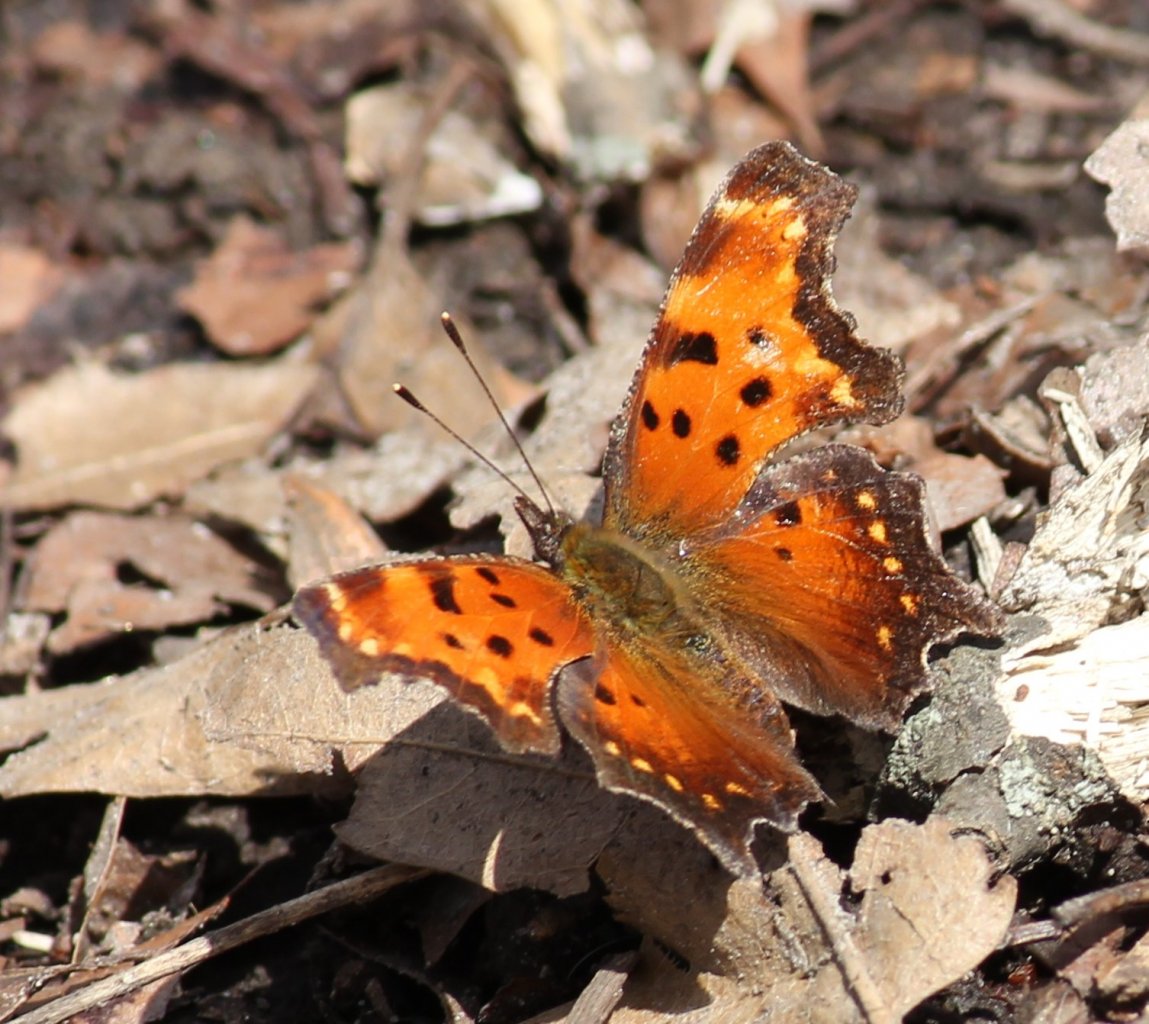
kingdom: Animalia
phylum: Arthropoda
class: Insecta
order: Lepidoptera
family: Nymphalidae
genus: Polygonia
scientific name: Polygonia progne
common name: Gray Comma
